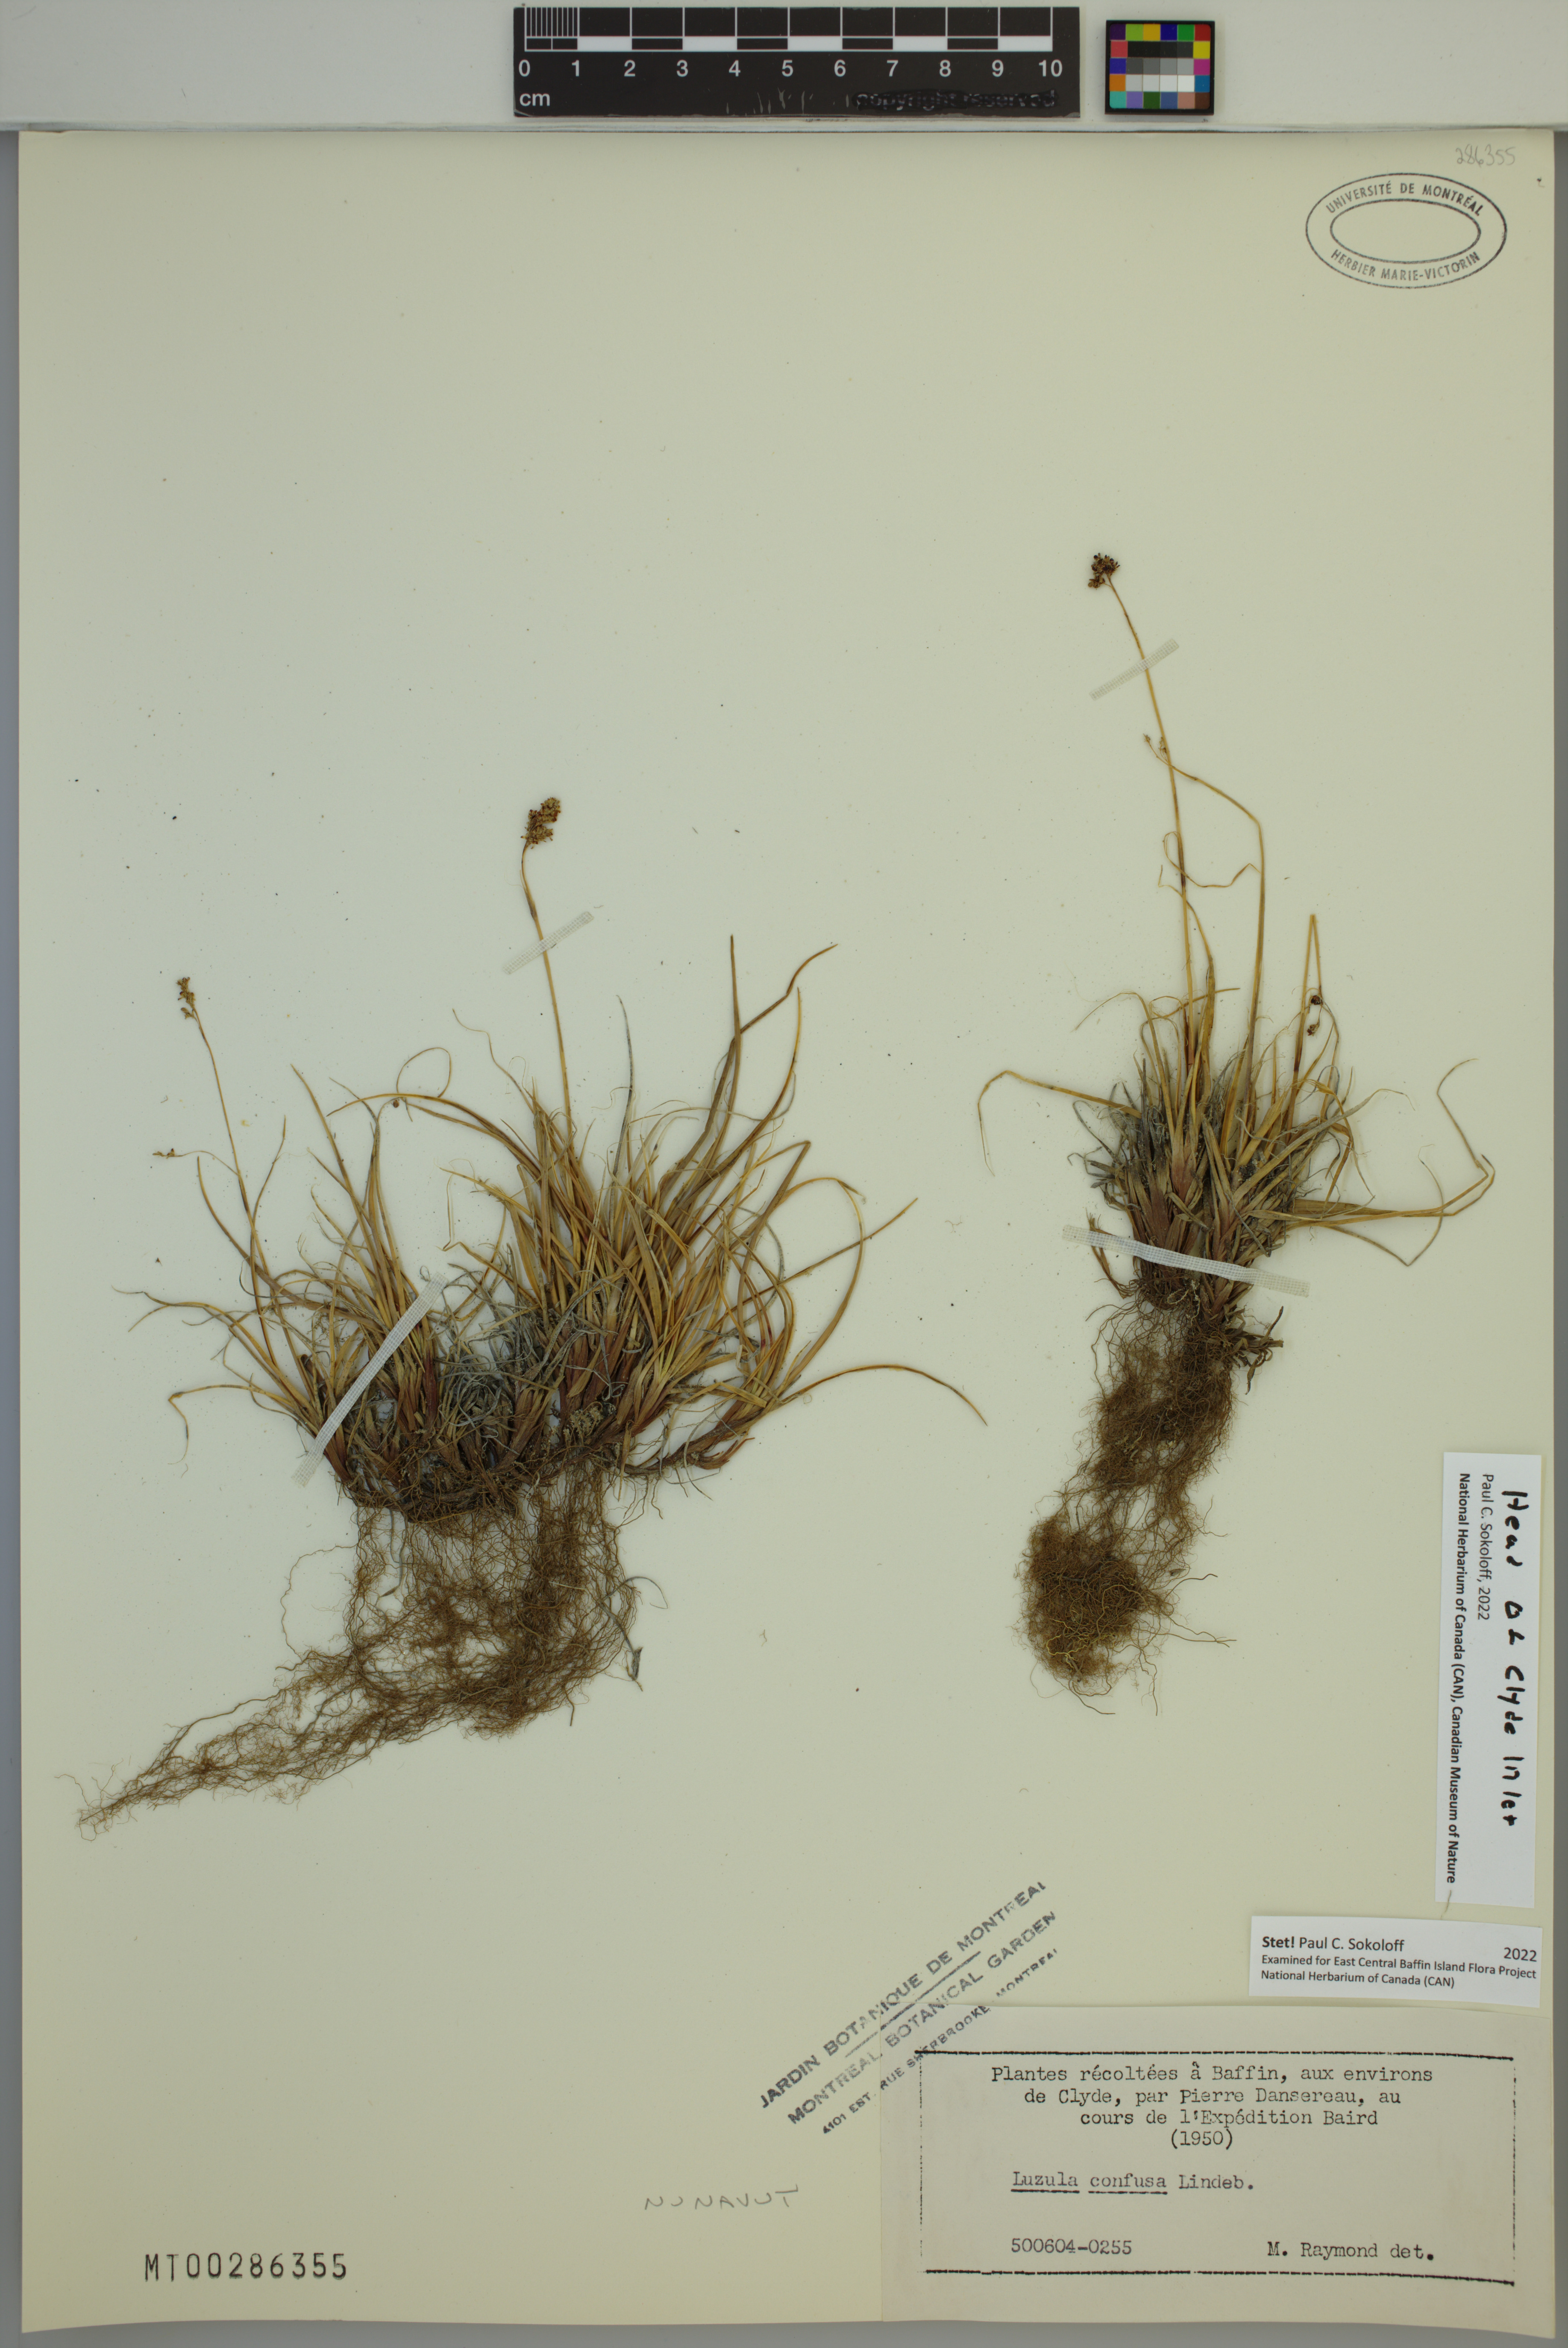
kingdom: Plantae
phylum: Tracheophyta
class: Liliopsida
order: Poales
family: Juncaceae
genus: Luzula
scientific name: Luzula confusa
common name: Northern wood rush
